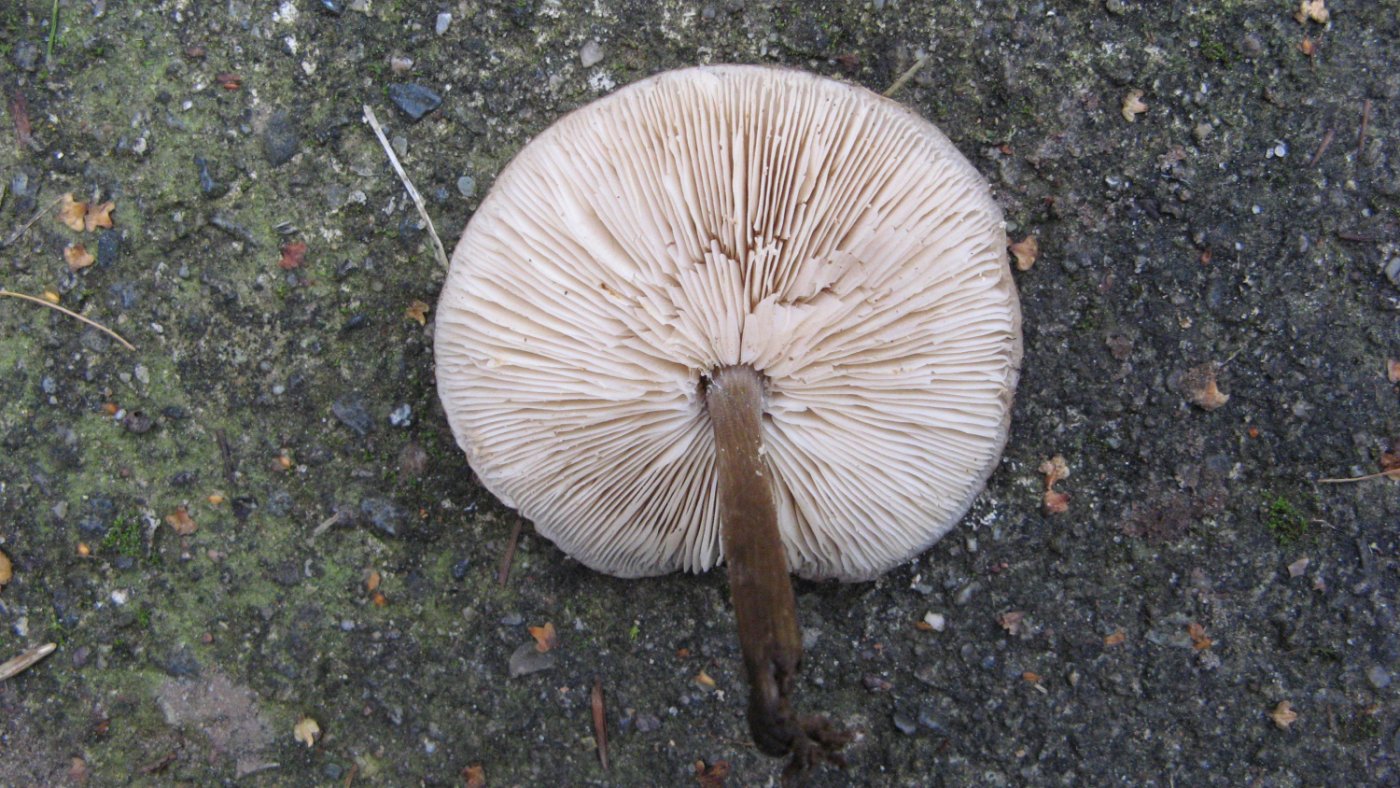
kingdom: Fungi
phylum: Basidiomycota
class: Agaricomycetes
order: Agaricales
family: Tricholomataceae
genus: Melanoleuca
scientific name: Melanoleuca polioleuca
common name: almindelig munkehat
